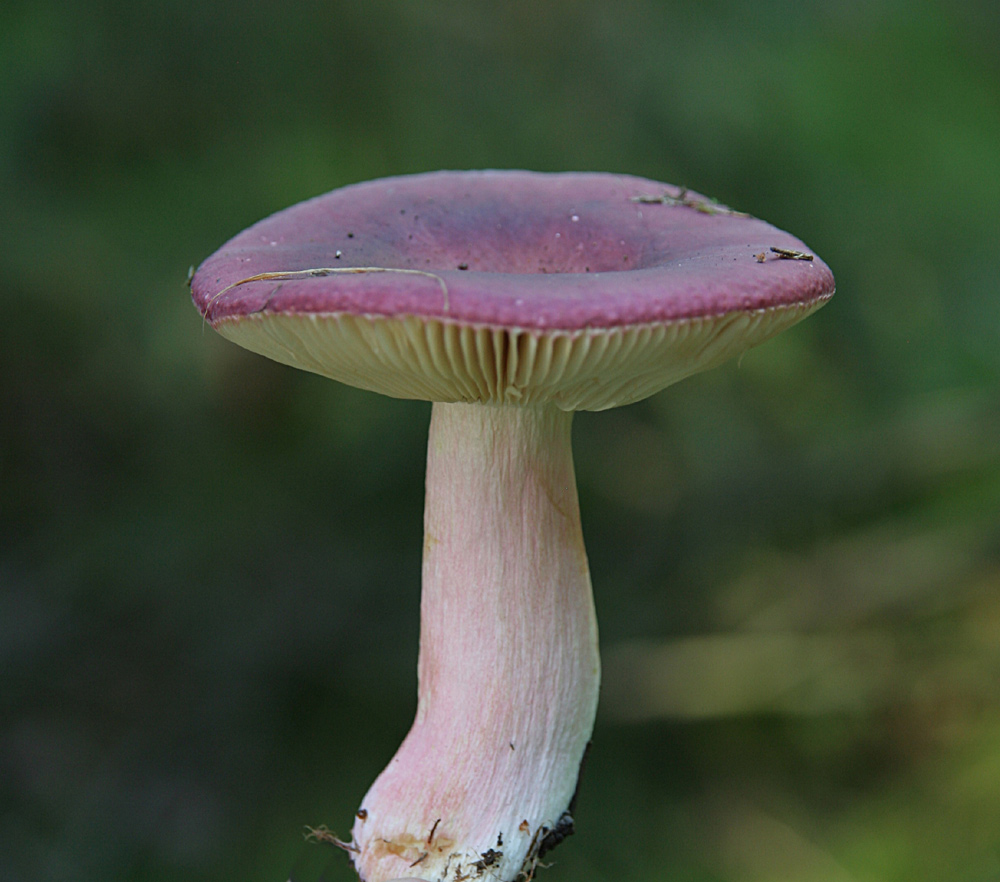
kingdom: Fungi
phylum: Basidiomycota
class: Agaricomycetes
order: Russulales
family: Russulaceae
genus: Russula
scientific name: Russula xerampelina
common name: hummer-skørhat
